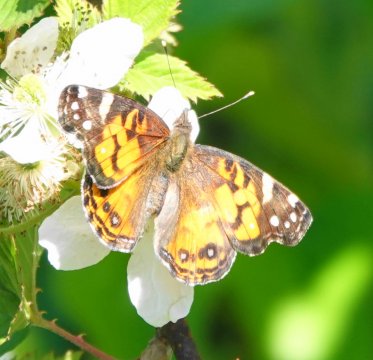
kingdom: Animalia
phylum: Arthropoda
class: Insecta
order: Lepidoptera
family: Nymphalidae
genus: Vanessa
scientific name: Vanessa virginiensis
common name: American Lady
